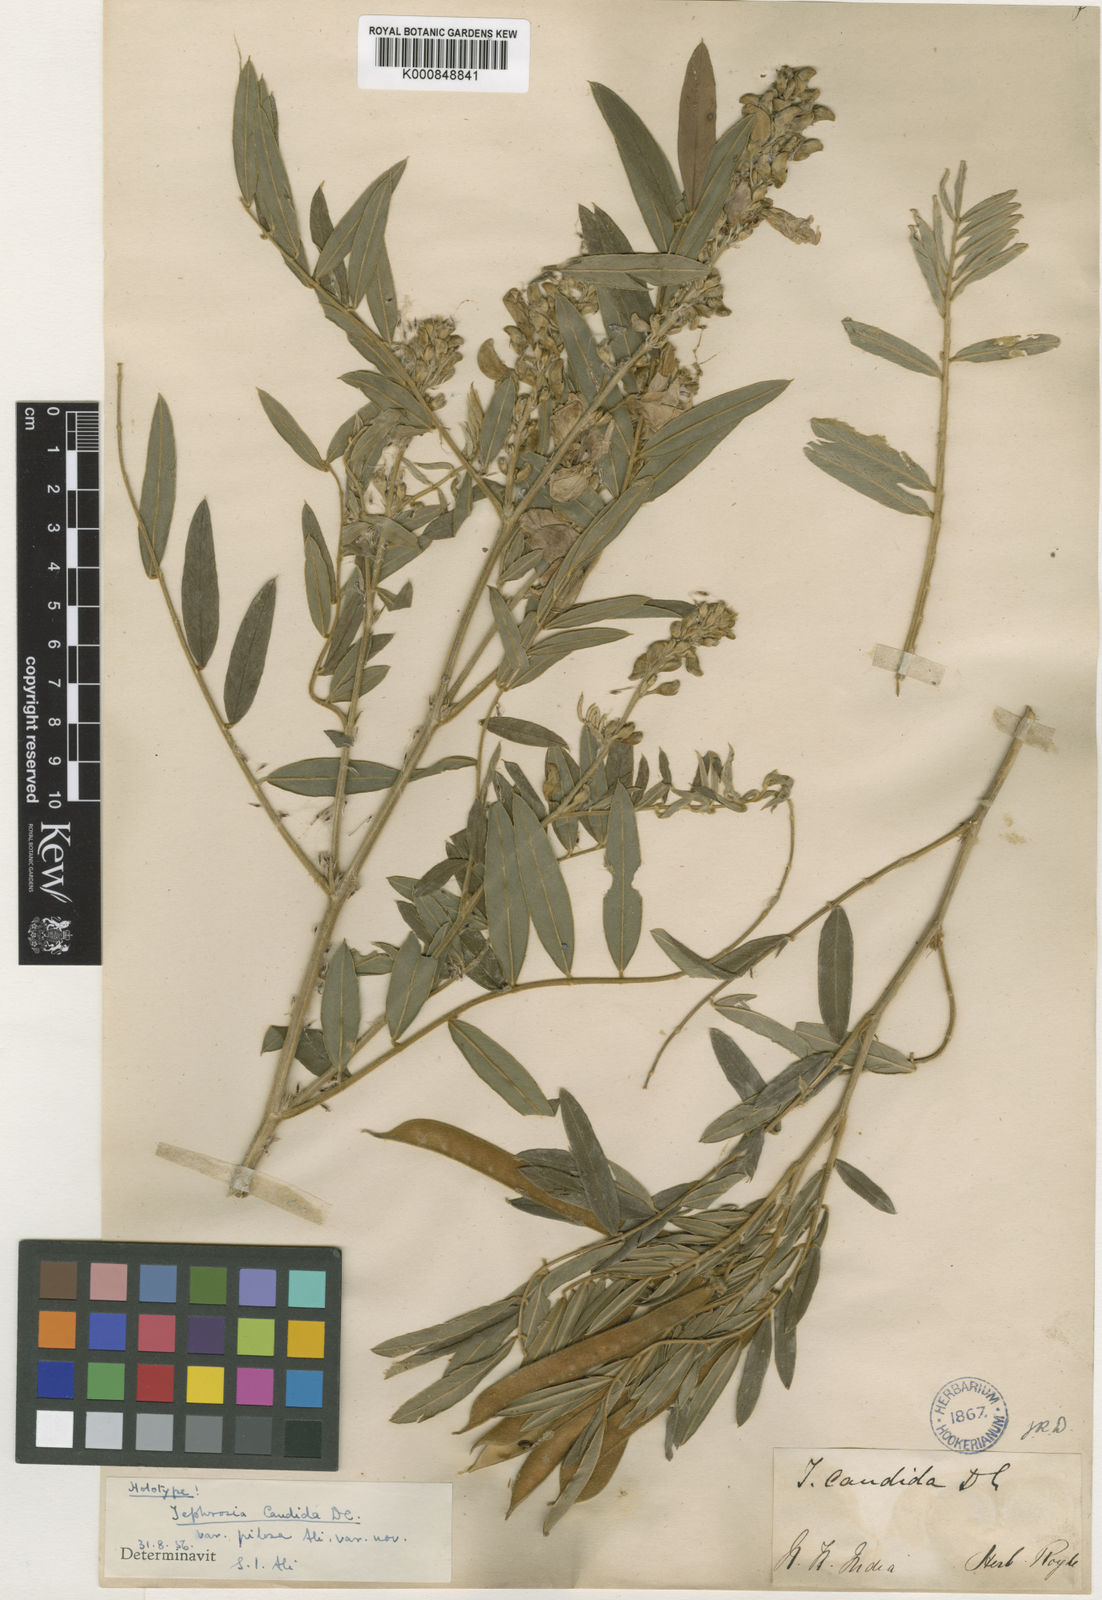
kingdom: Plantae
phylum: Tracheophyta
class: Magnoliopsida
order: Fabales
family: Fabaceae
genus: Tephrosia
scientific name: Tephrosia candida
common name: White tephrosia
